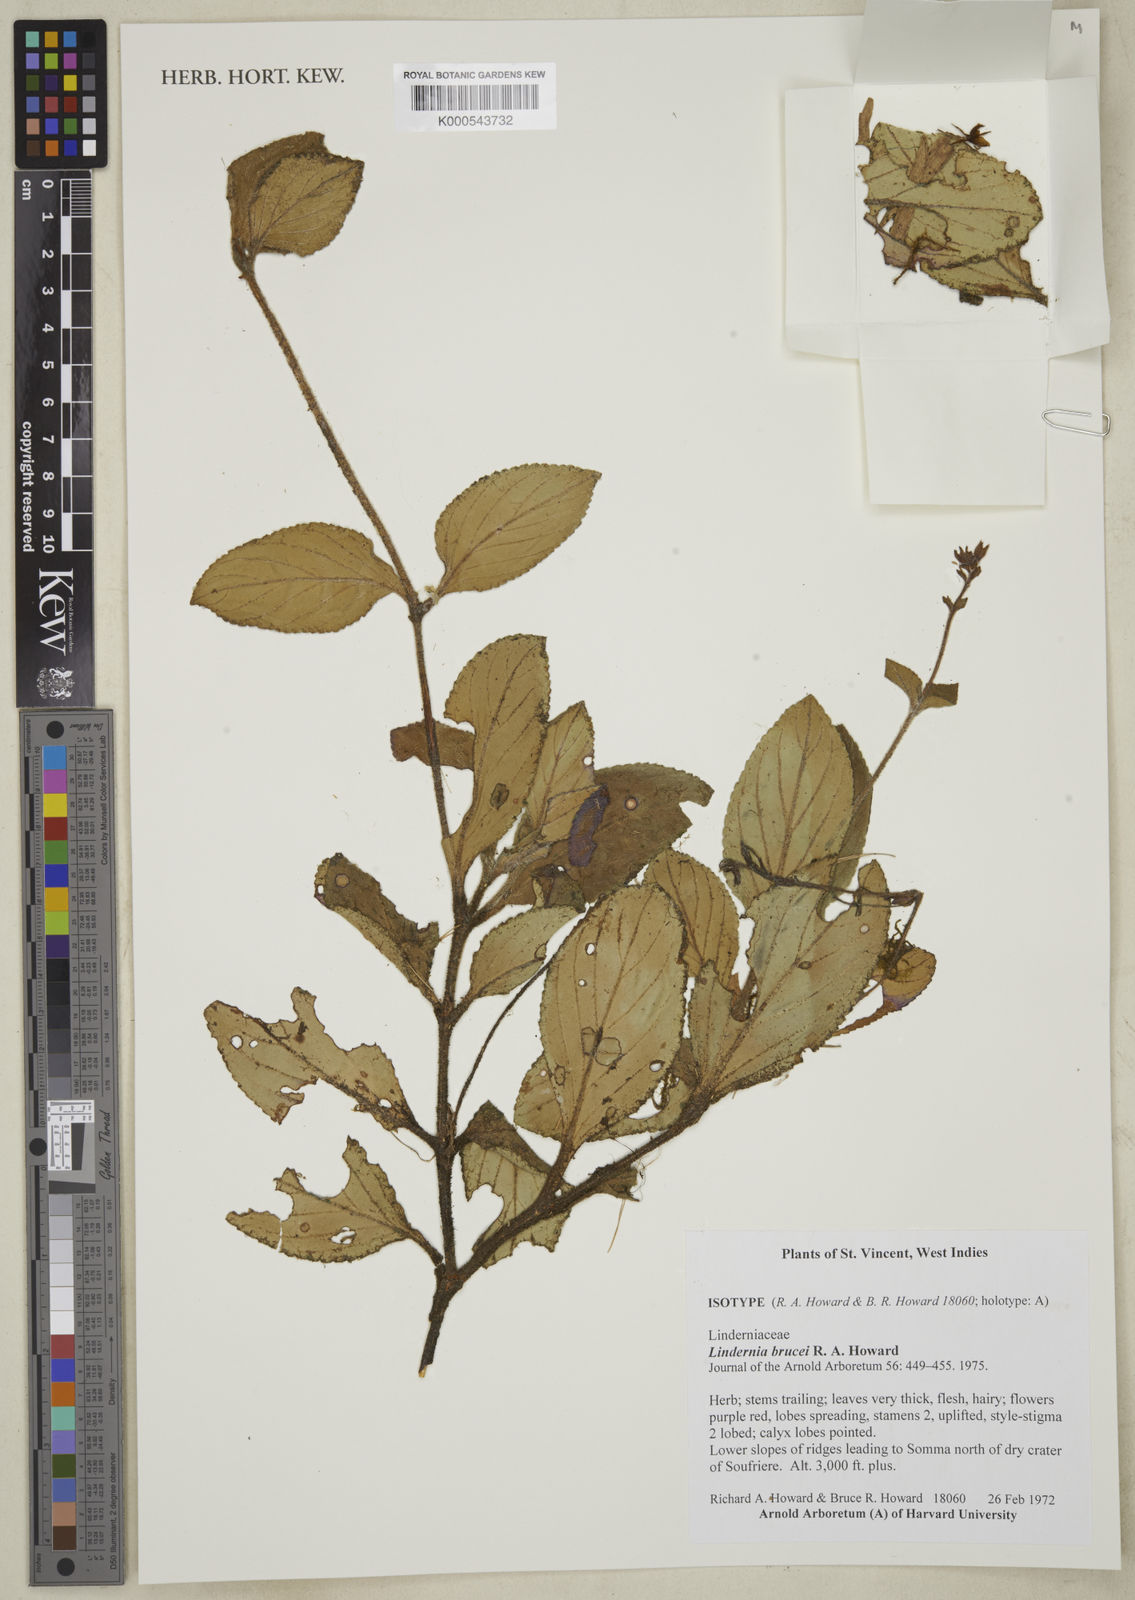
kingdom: Plantae
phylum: Tracheophyta
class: Magnoliopsida
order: Lamiales
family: Linderniaceae
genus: Vandellia
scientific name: Vandellia brucei
